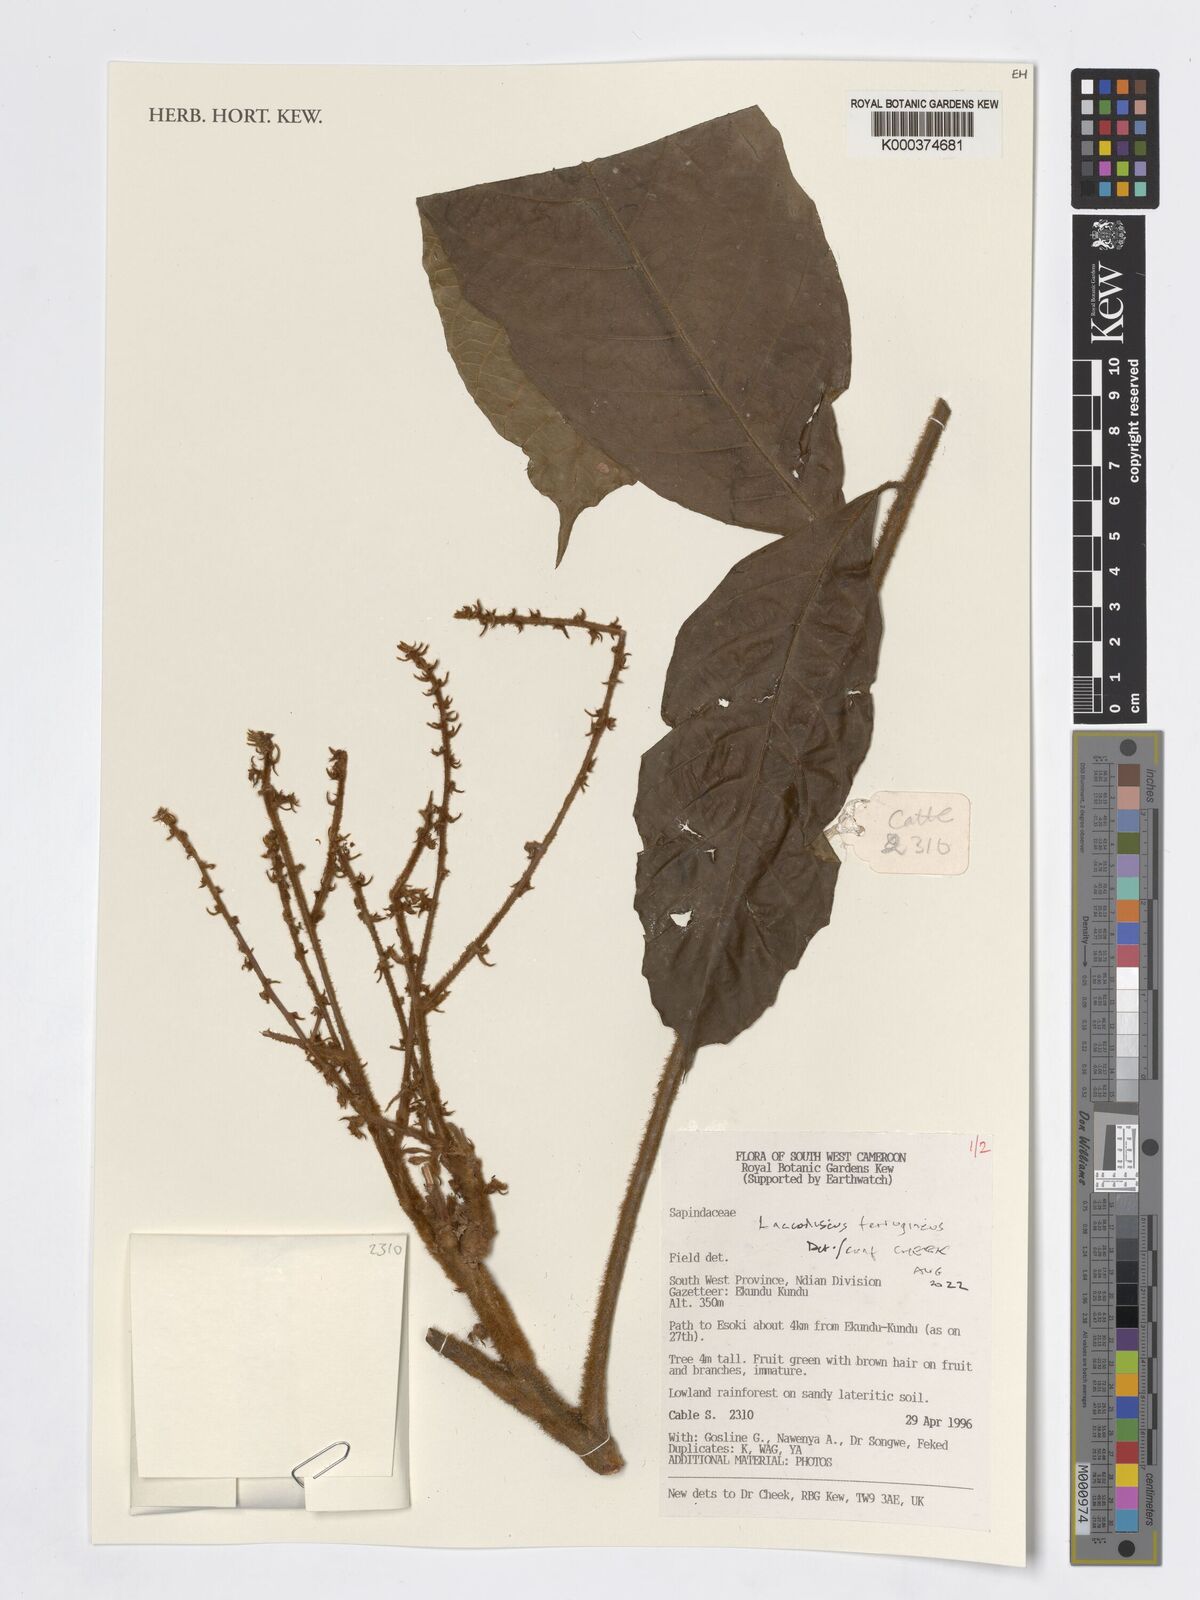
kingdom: Plantae
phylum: Tracheophyta
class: Magnoliopsida
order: Sapindales
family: Sapindaceae
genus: Laccodiscus
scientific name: Laccodiscus ferrugineus
